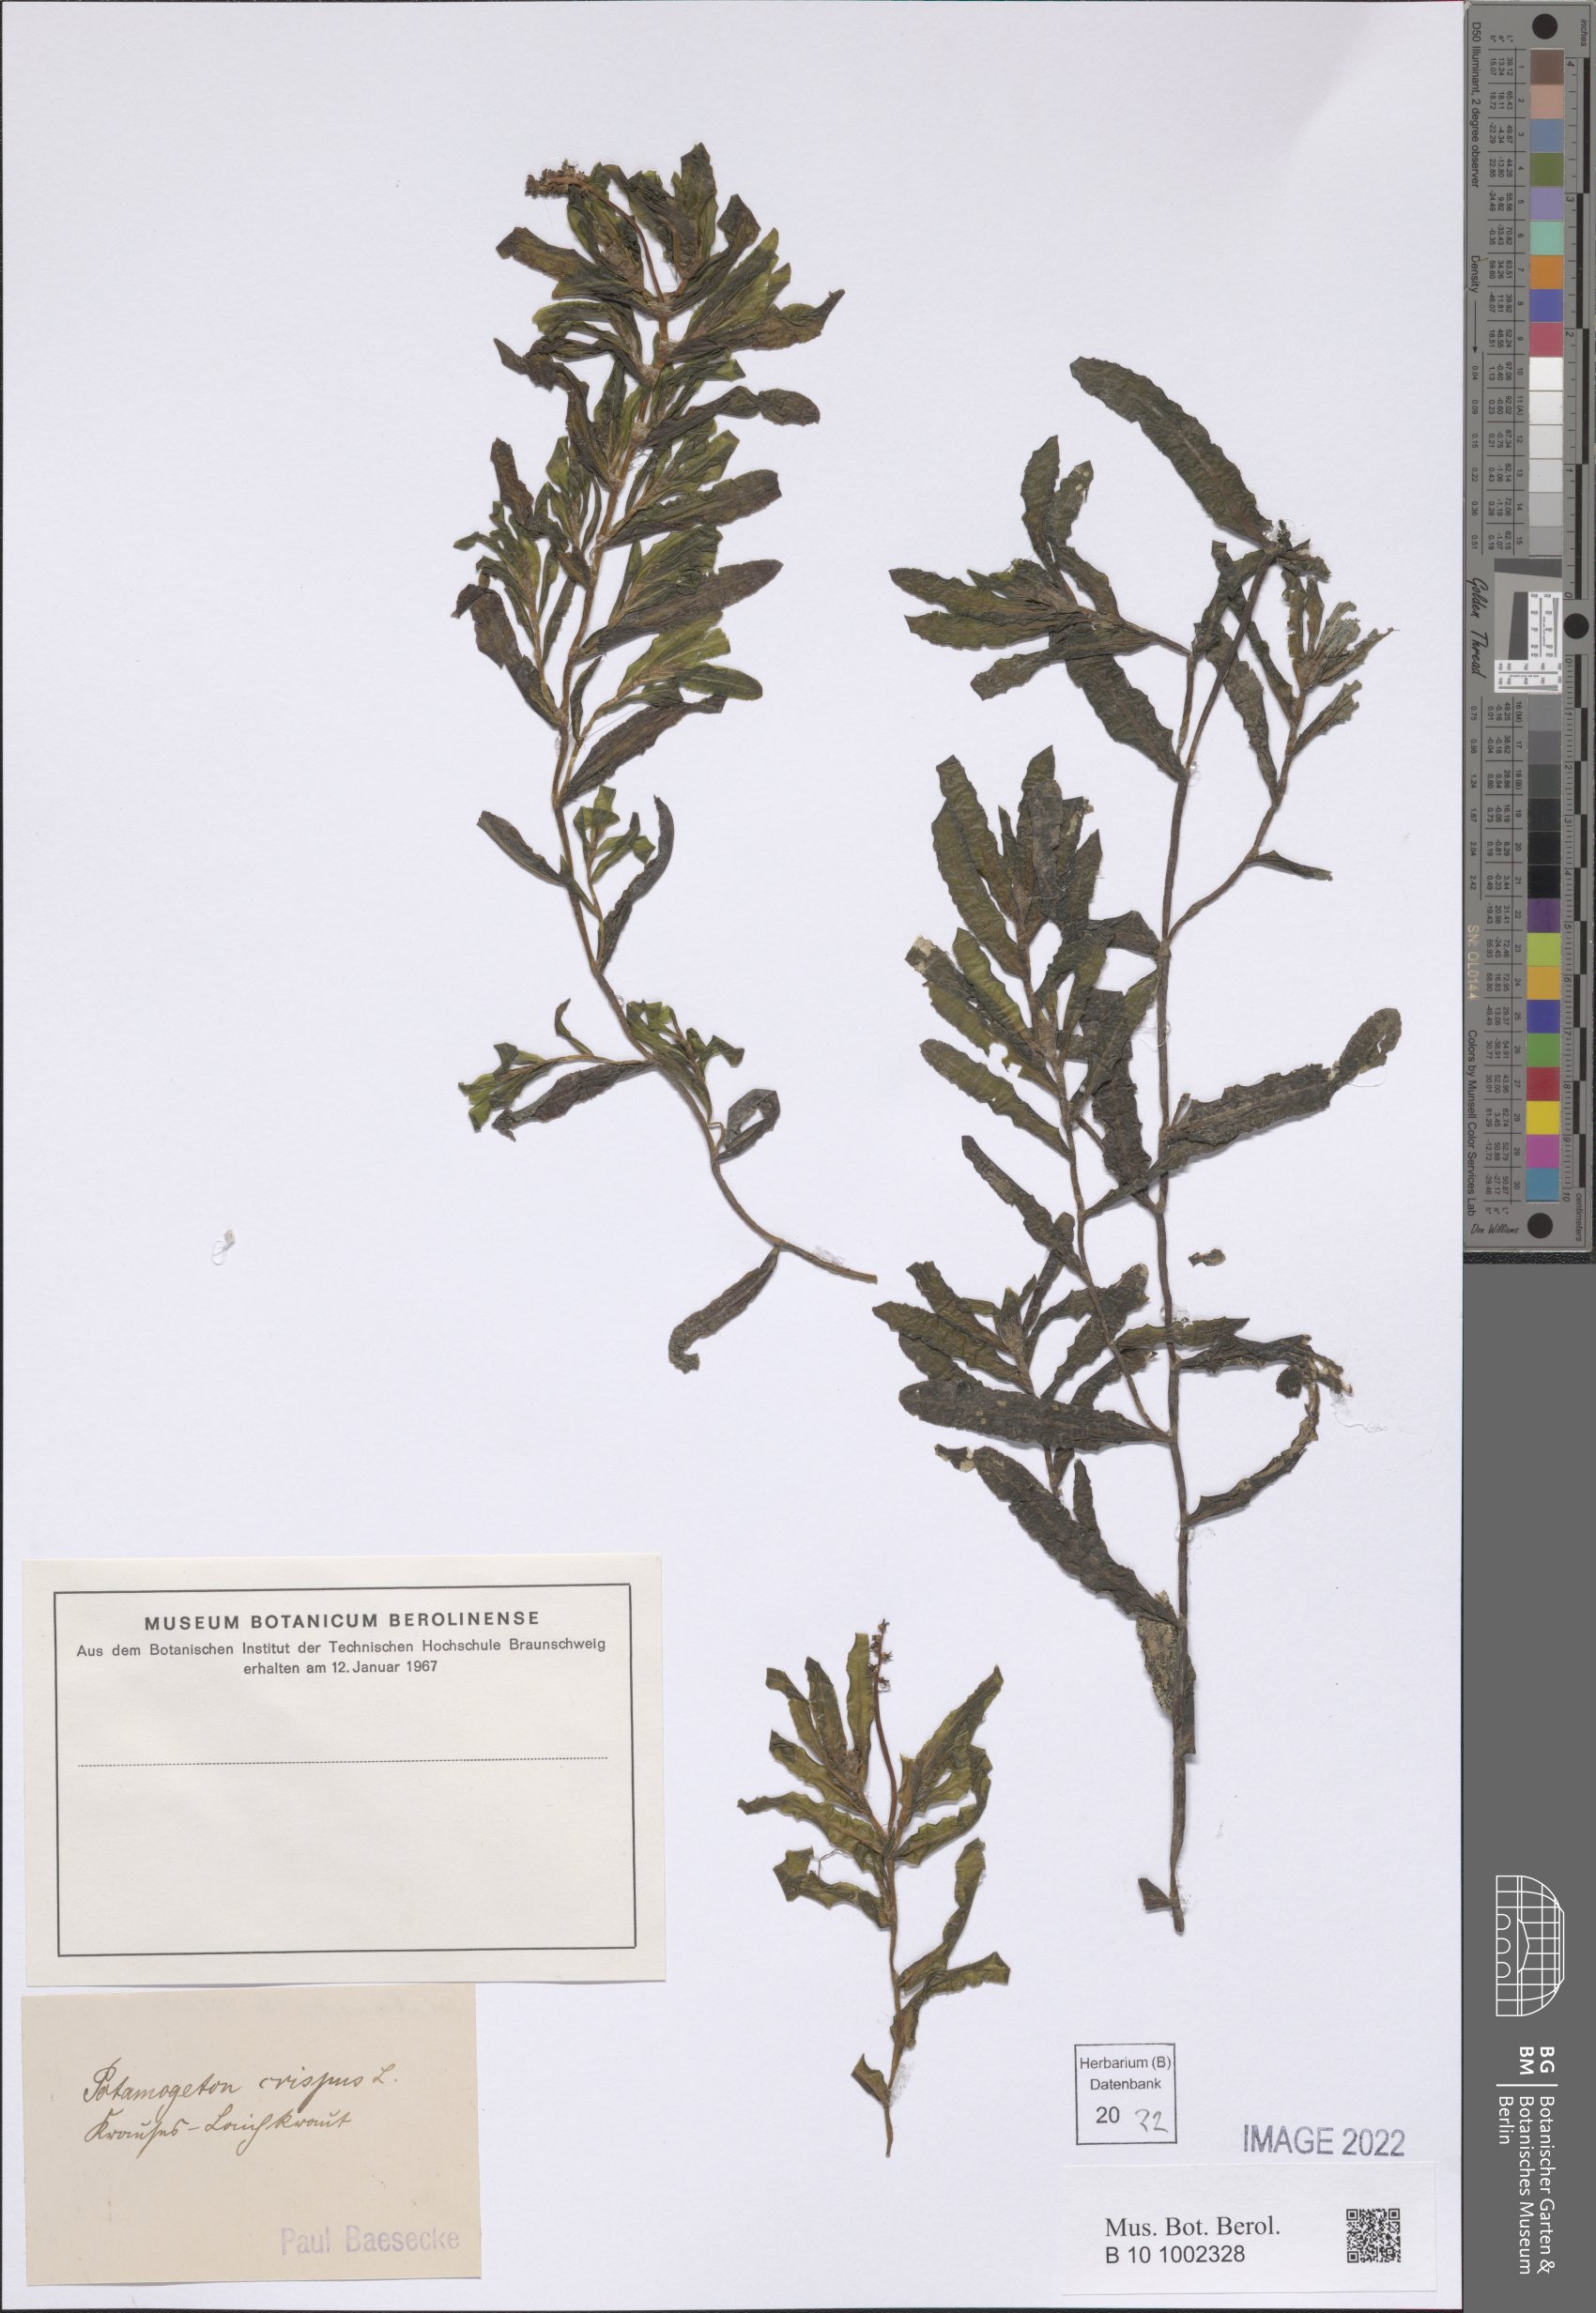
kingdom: Plantae
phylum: Tracheophyta
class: Liliopsida
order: Alismatales
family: Potamogetonaceae
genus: Potamogeton
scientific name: Potamogeton crispus
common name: Curled pondweed
